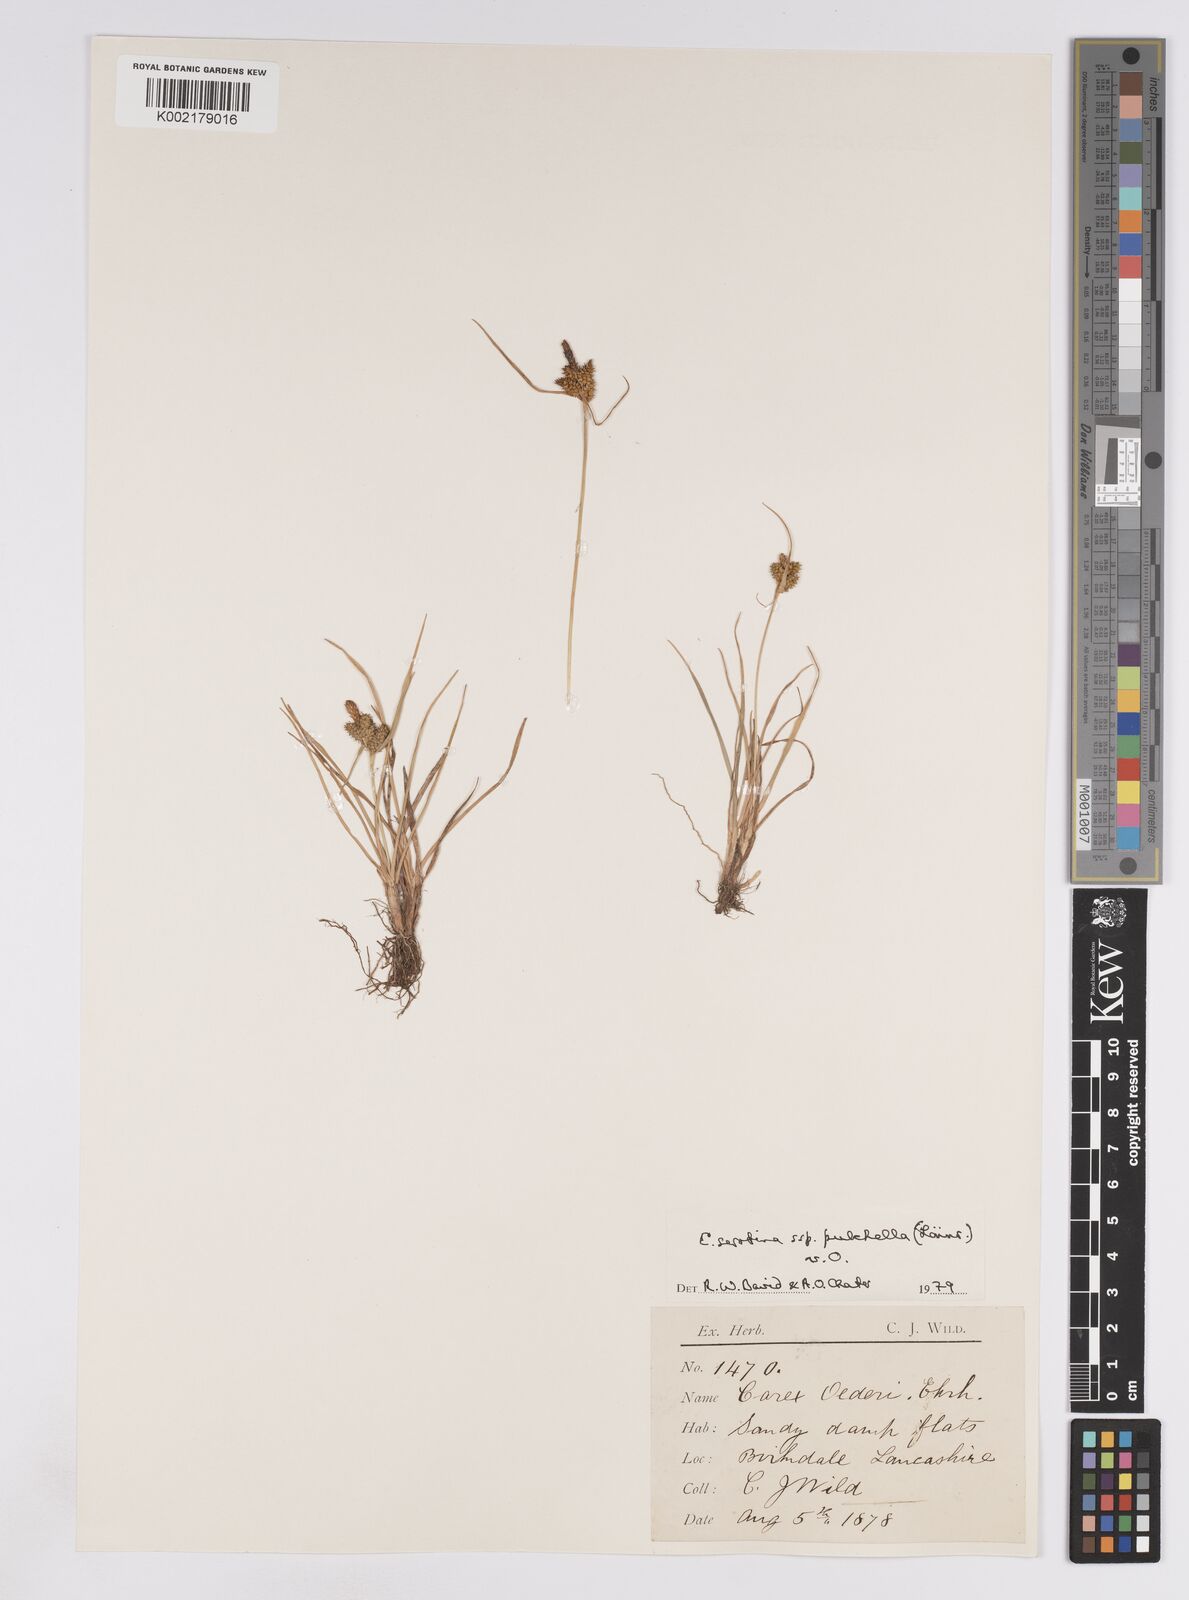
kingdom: Plantae
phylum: Tracheophyta
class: Liliopsida
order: Poales
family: Cyperaceae
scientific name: Cyperaceae
